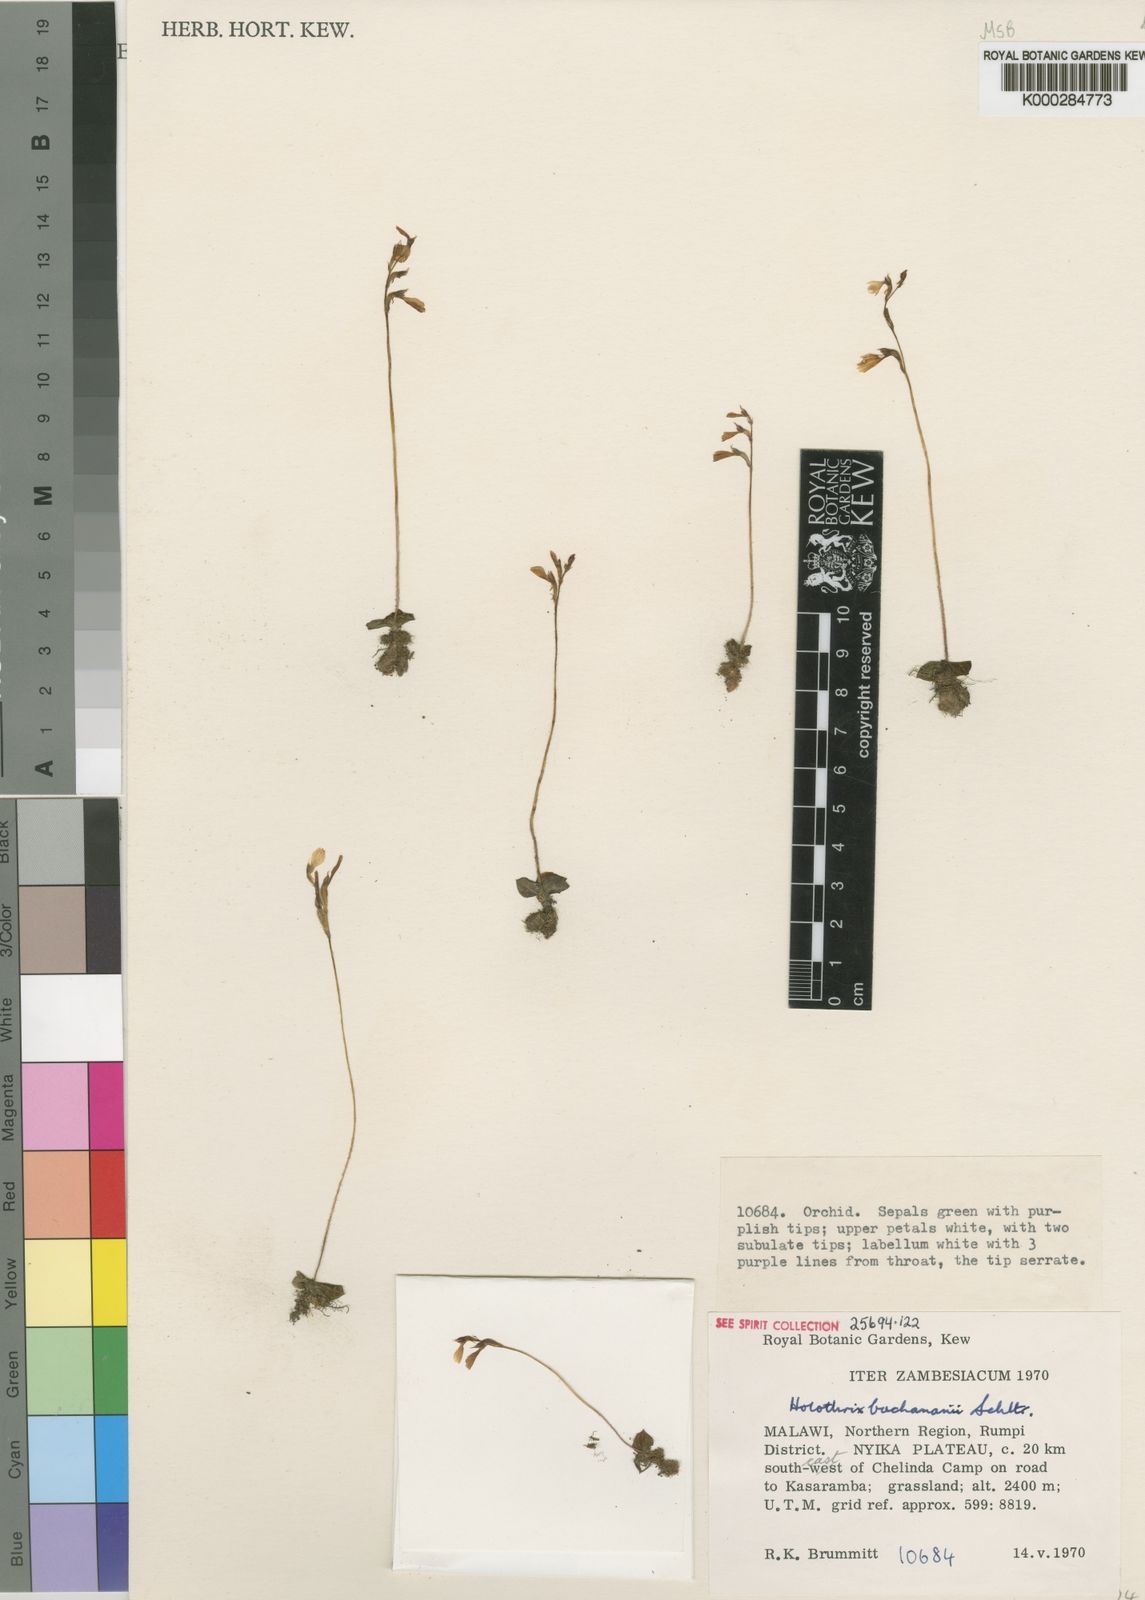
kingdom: Plantae
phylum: Tracheophyta
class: Liliopsida
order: Asparagales
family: Orchidaceae
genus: Holothrix
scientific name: Holothrix buchananii
